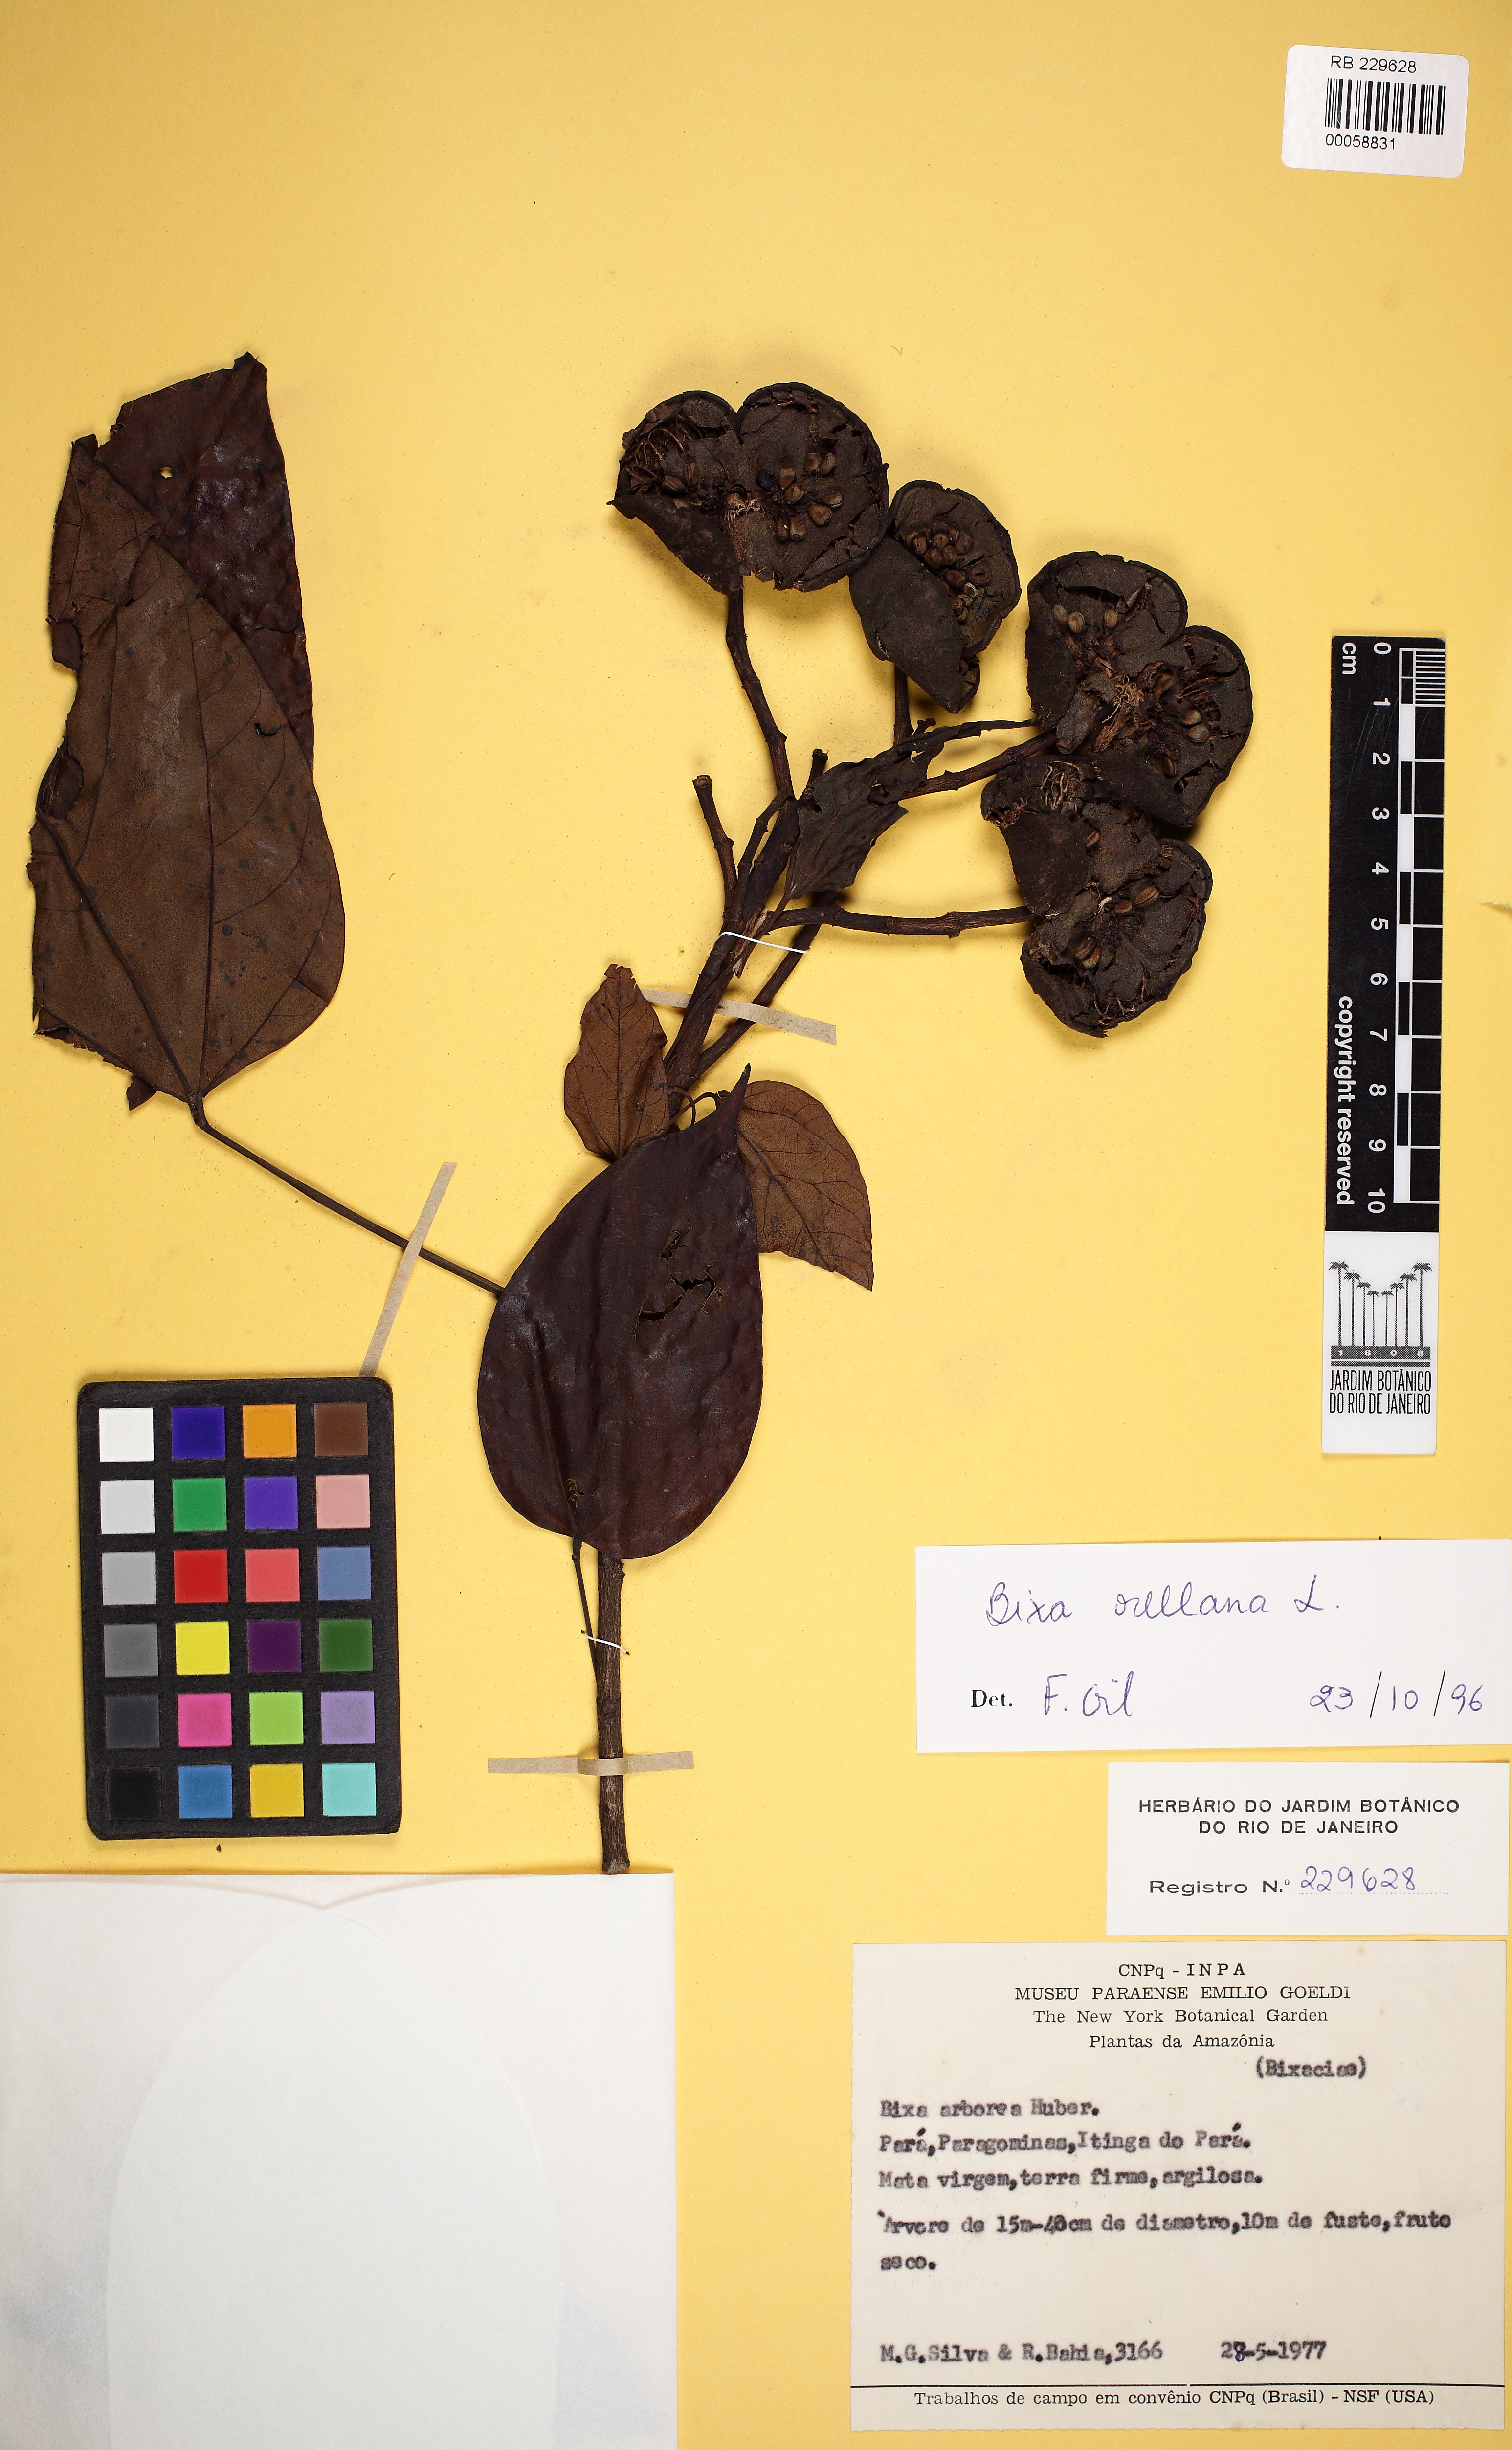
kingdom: Plantae
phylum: Tracheophyta
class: Magnoliopsida
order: Malvales
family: Bixaceae
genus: Bixa
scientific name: Bixa orellana
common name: Lipsticktree
